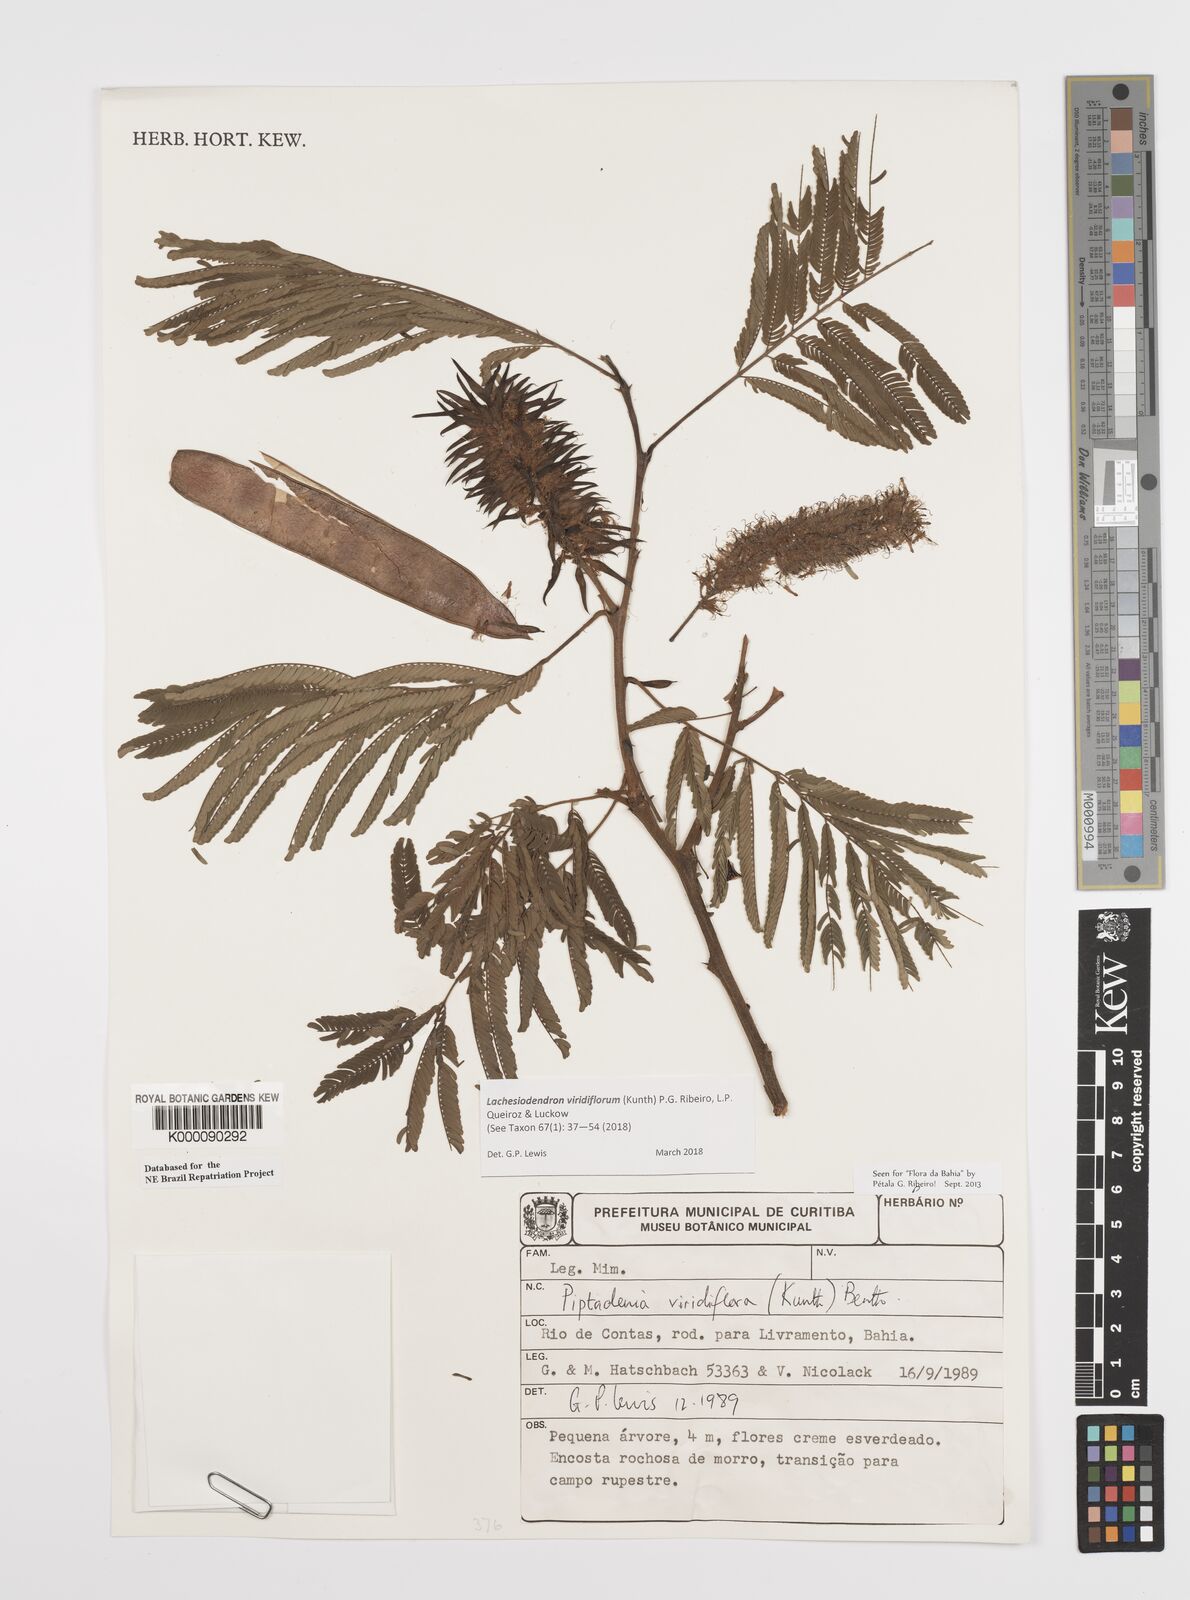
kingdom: Plantae
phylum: Tracheophyta
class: Magnoliopsida
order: Fabales
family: Fabaceae
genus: Lachesiodendron
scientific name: Lachesiodendron viridiflorum
